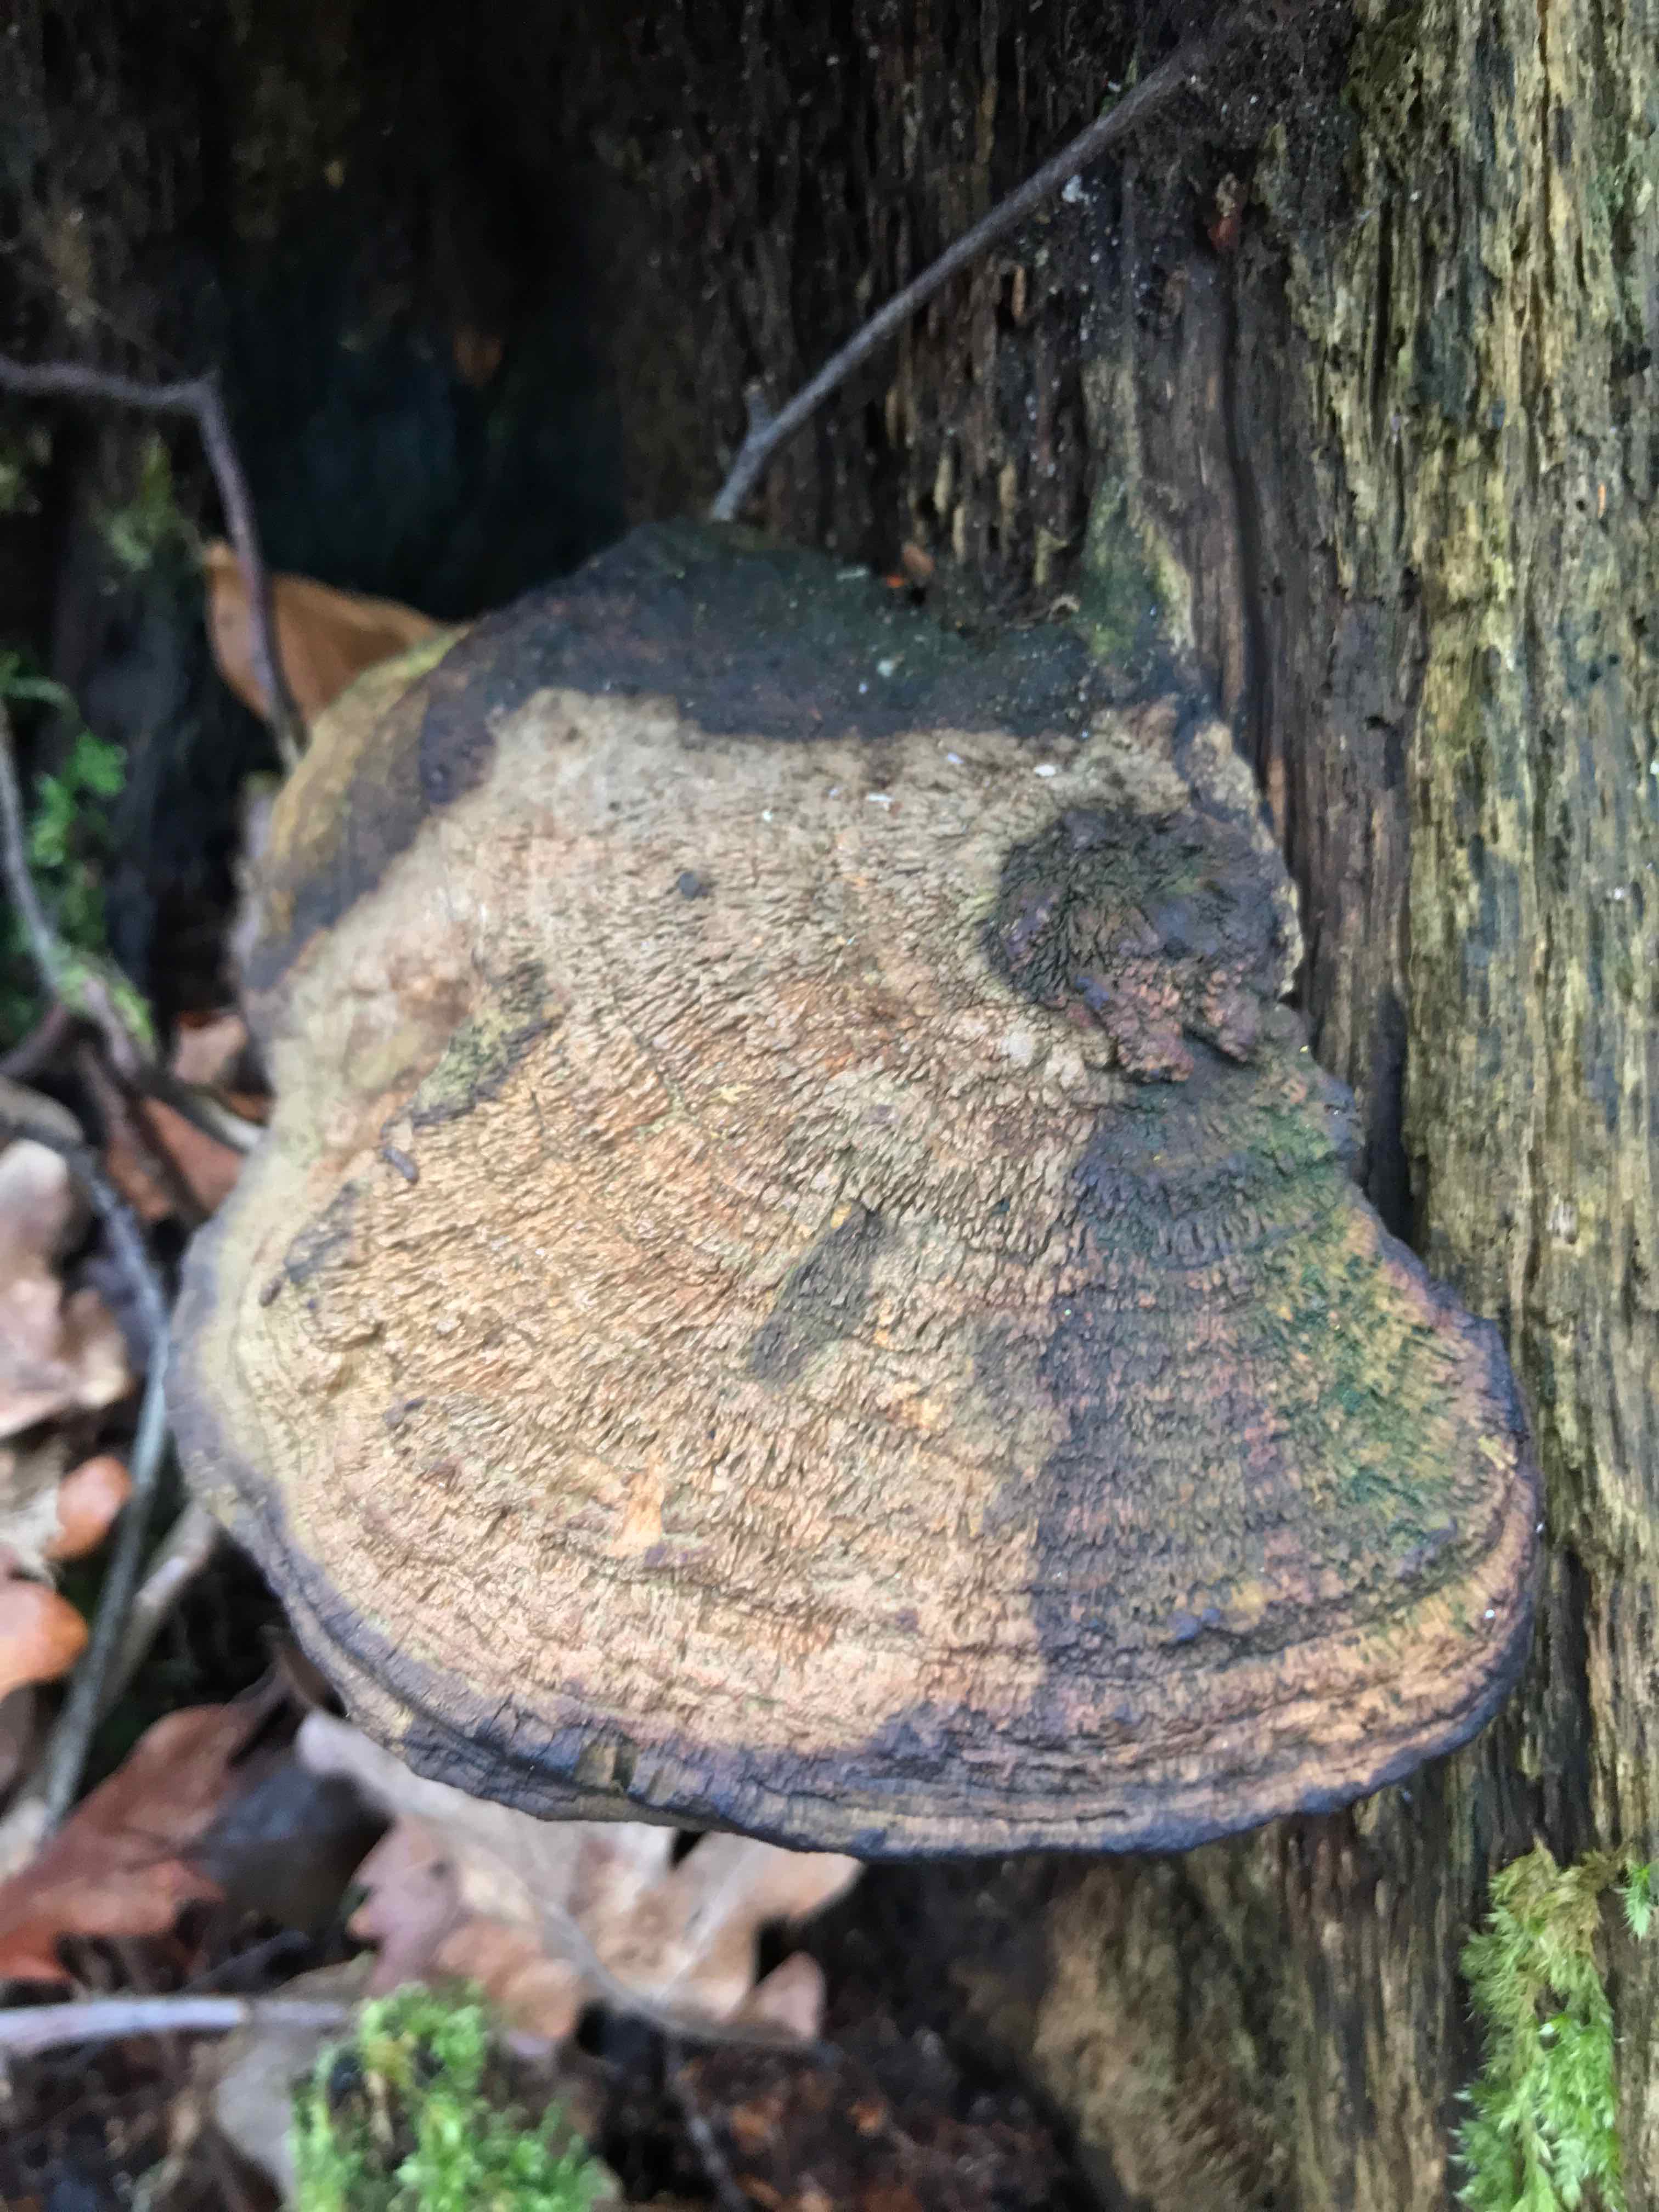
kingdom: Fungi
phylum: Basidiomycota
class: Agaricomycetes
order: Polyporales
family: Fomitopsidaceae
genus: Daedalea
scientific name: Daedalea quercina
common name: ege-labyrintsvamp
